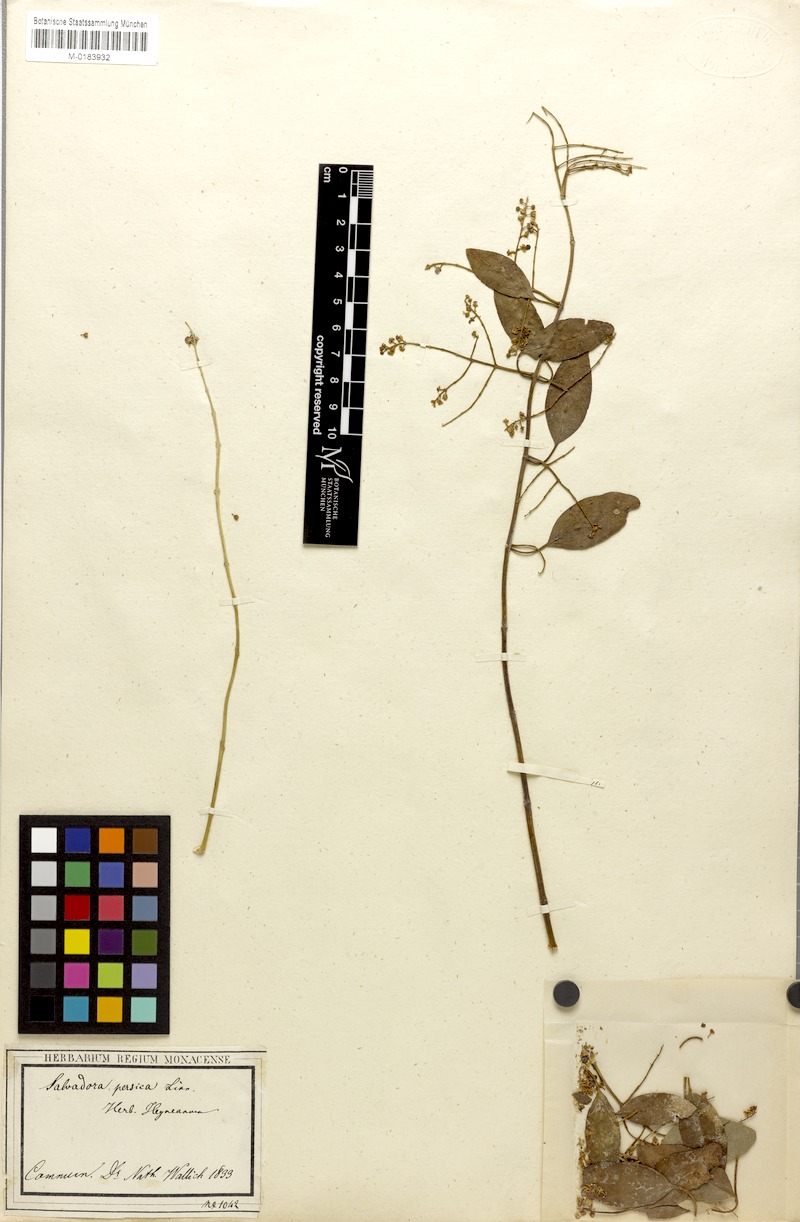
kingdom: Plantae
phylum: Tracheophyta
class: Magnoliopsida
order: Brassicales
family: Salvadoraceae
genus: Salvadora
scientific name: Salvadora persica
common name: Toothbrushtree
